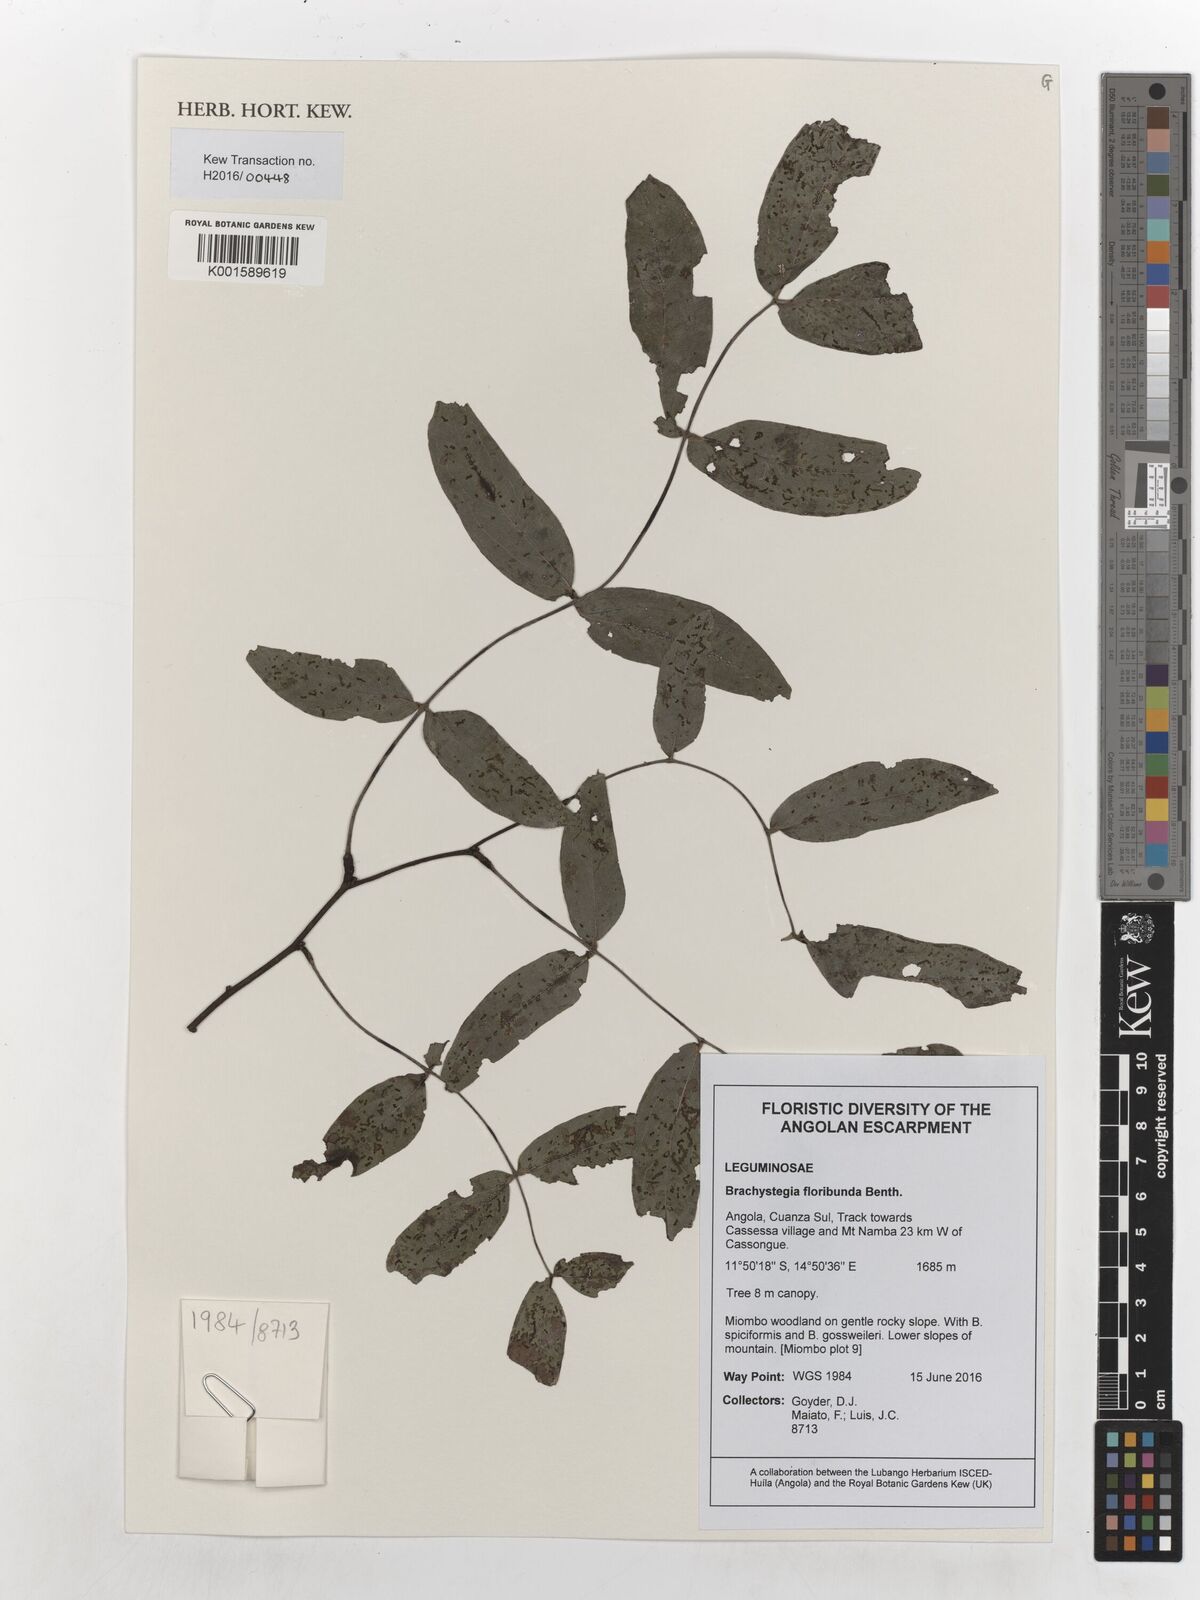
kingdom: Plantae
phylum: Tracheophyta
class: Magnoliopsida
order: Fabales
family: Fabaceae
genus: Brachystegia
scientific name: Brachystegia floribunda
